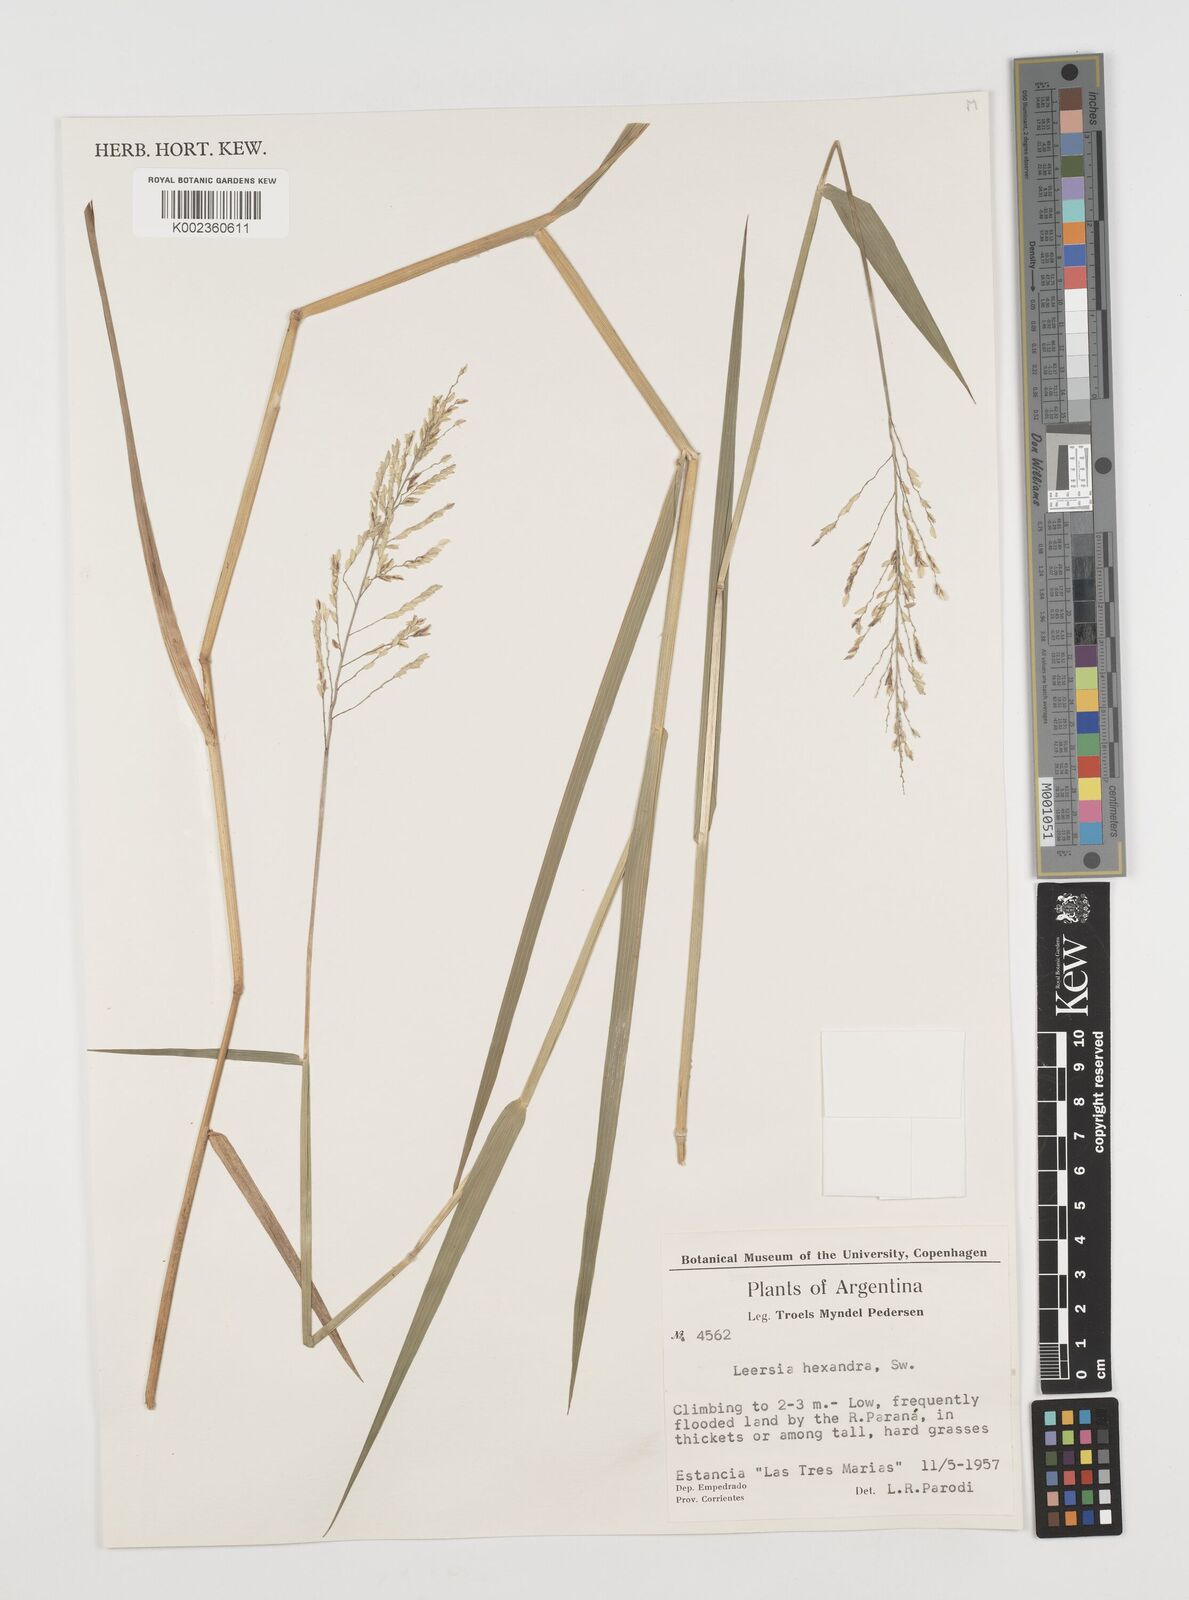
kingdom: Plantae
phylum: Tracheophyta
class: Liliopsida
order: Poales
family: Poaceae
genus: Leersia
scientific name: Leersia hexandra
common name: Southern cut grass
